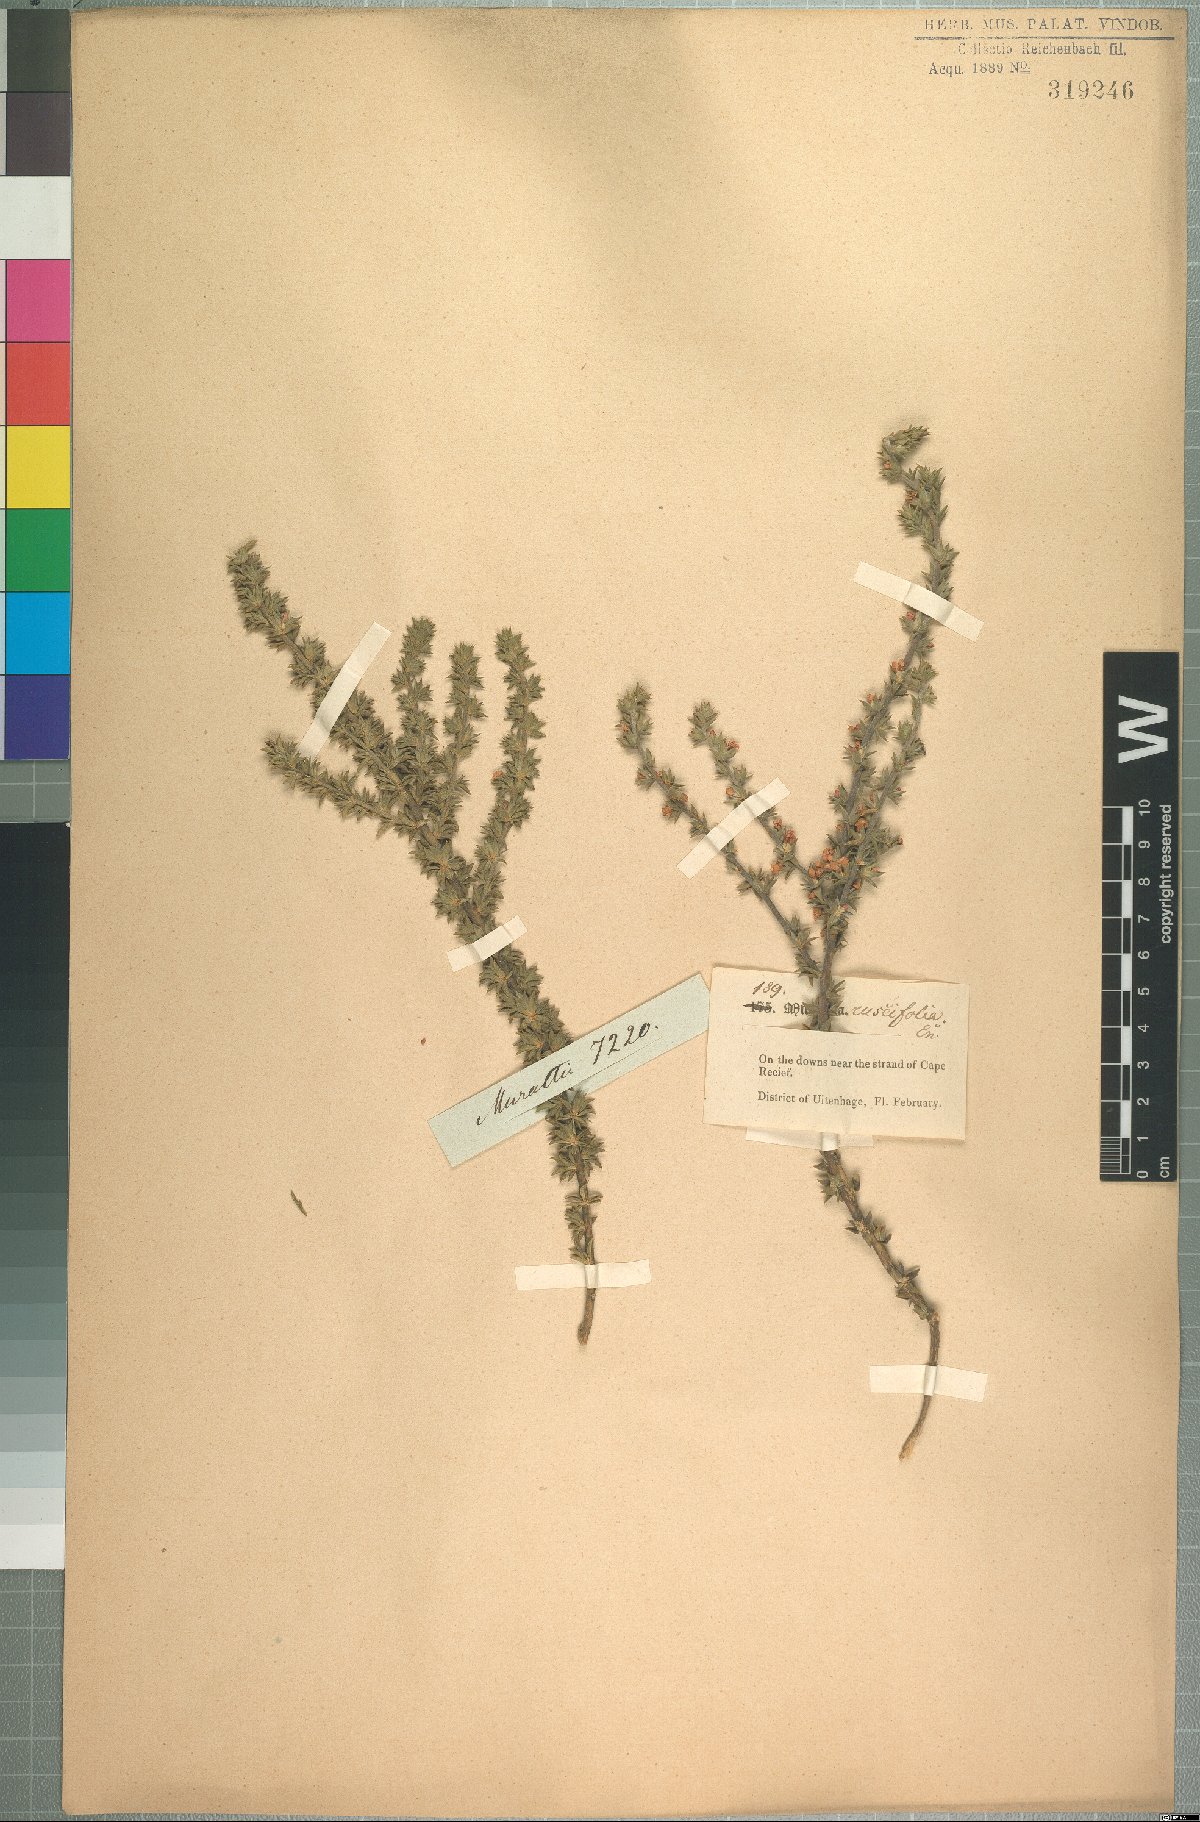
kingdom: Plantae
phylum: Tracheophyta
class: Magnoliopsida
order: Fabales
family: Polygalaceae
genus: Muraltia
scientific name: Muraltia squarrosa
